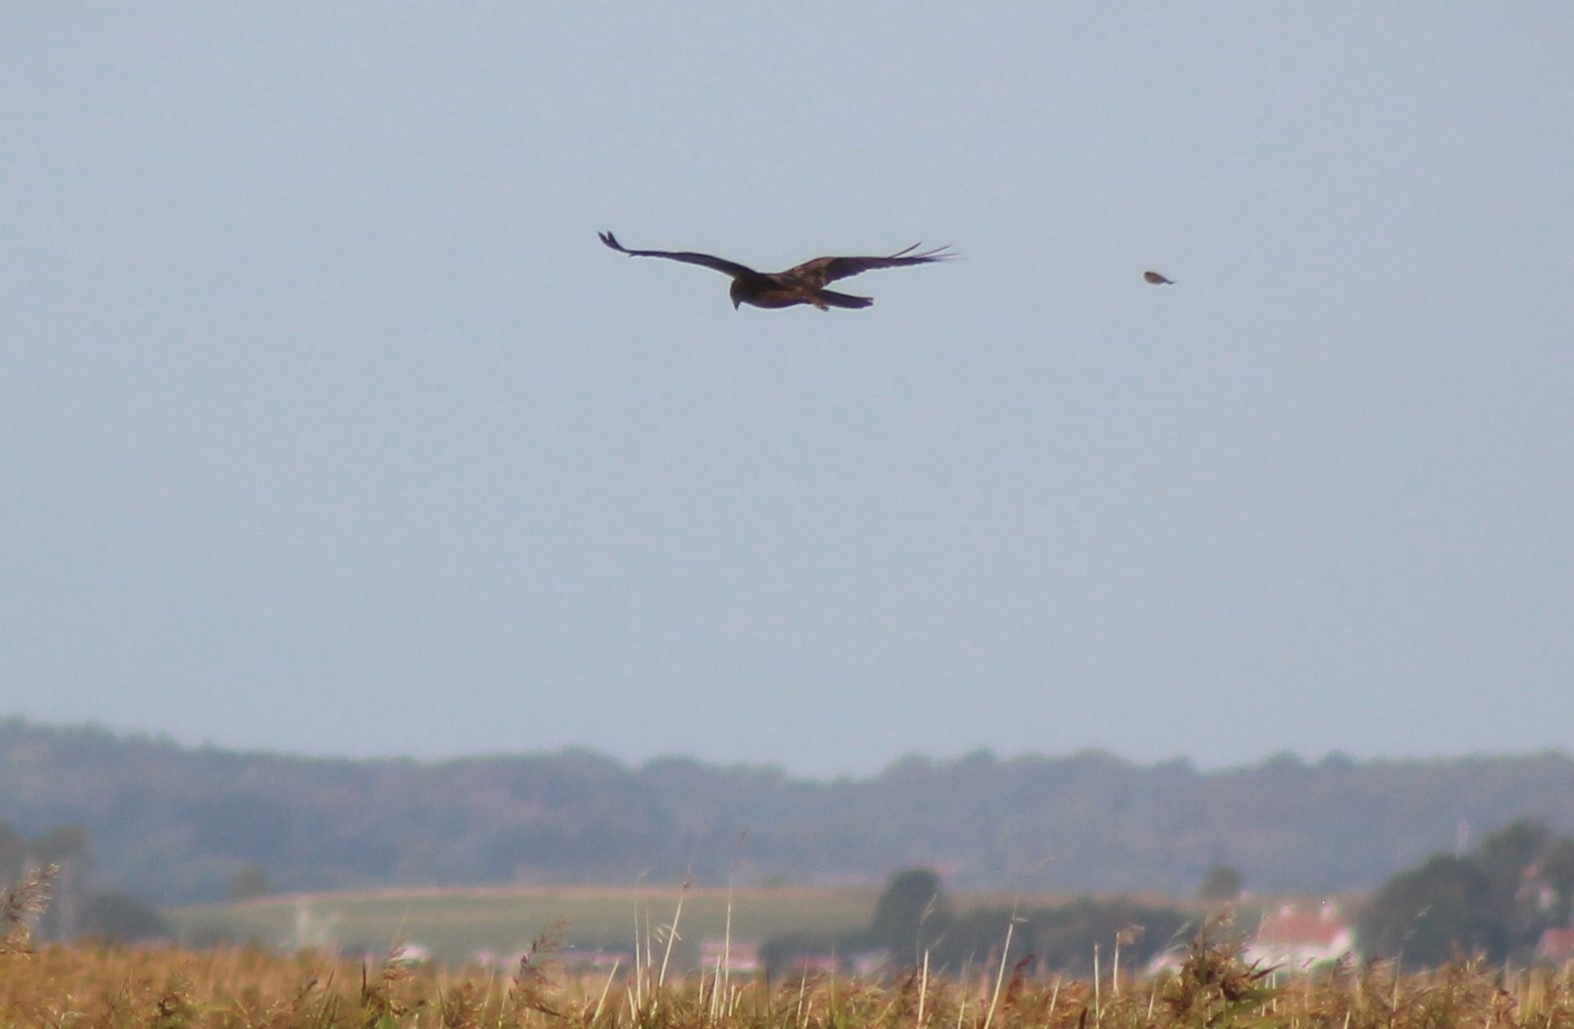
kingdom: Animalia
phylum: Chordata
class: Aves
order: Accipitriformes
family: Accipitridae
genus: Circus
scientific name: Circus aeruginosus
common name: Rørhøg
